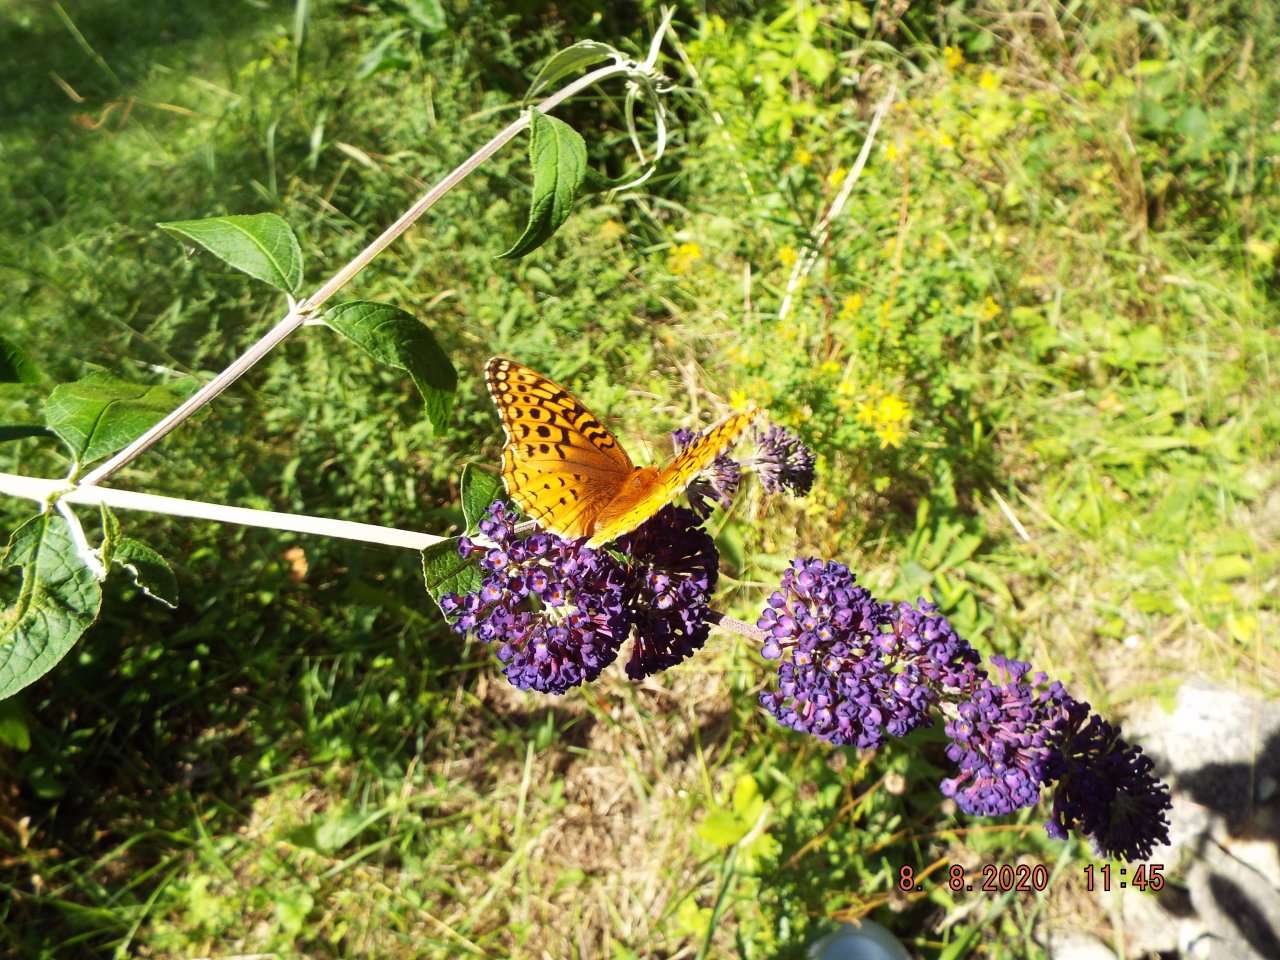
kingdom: Animalia
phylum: Arthropoda
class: Insecta
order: Lepidoptera
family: Nymphalidae
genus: Speyeria
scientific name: Speyeria cybele
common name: Great Spangled Fritillary
